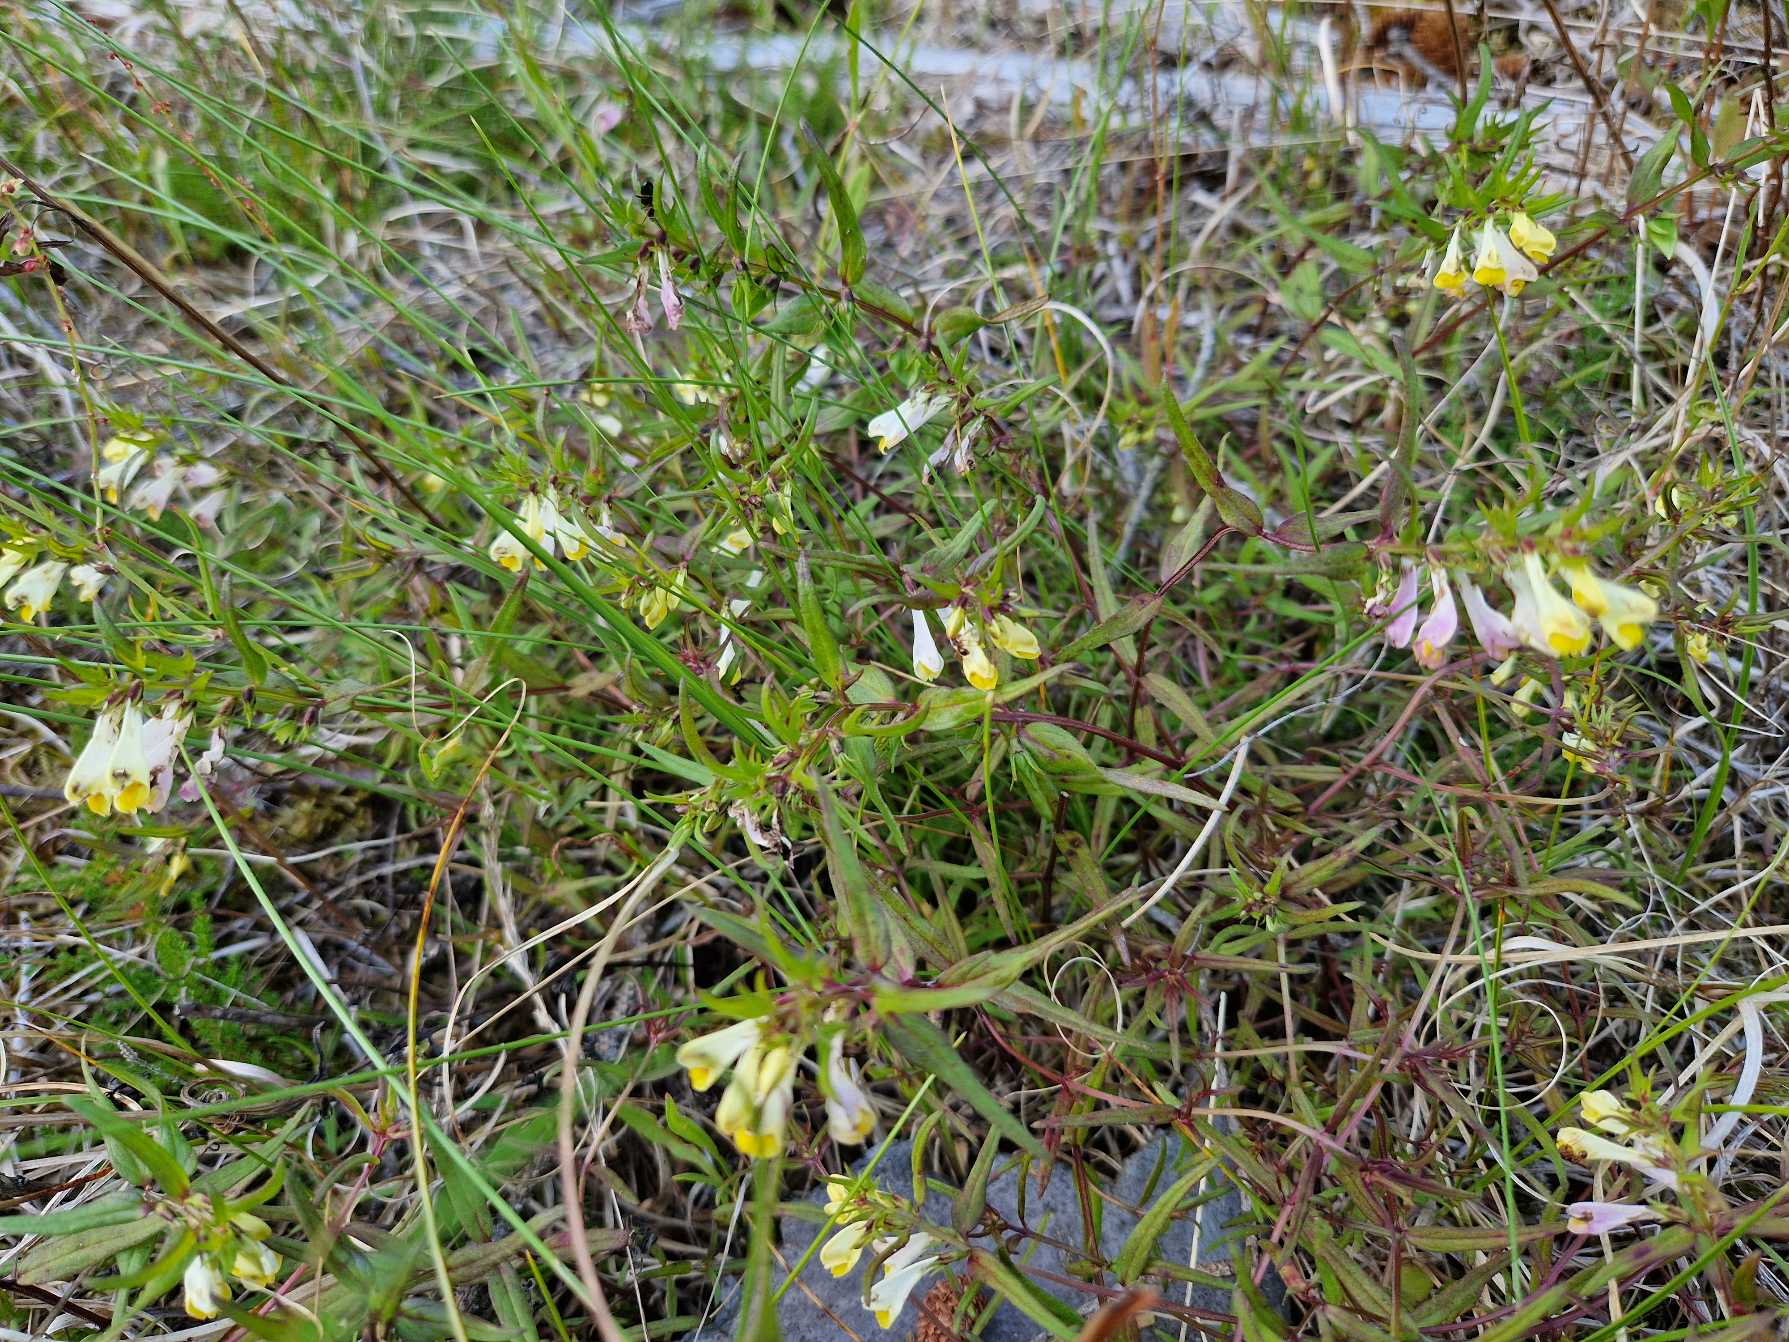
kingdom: Plantae
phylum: Tracheophyta
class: Magnoliopsida
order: Lamiales
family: Orobanchaceae
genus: Melampyrum
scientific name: Melampyrum pratense
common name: Almindelig kohvede
